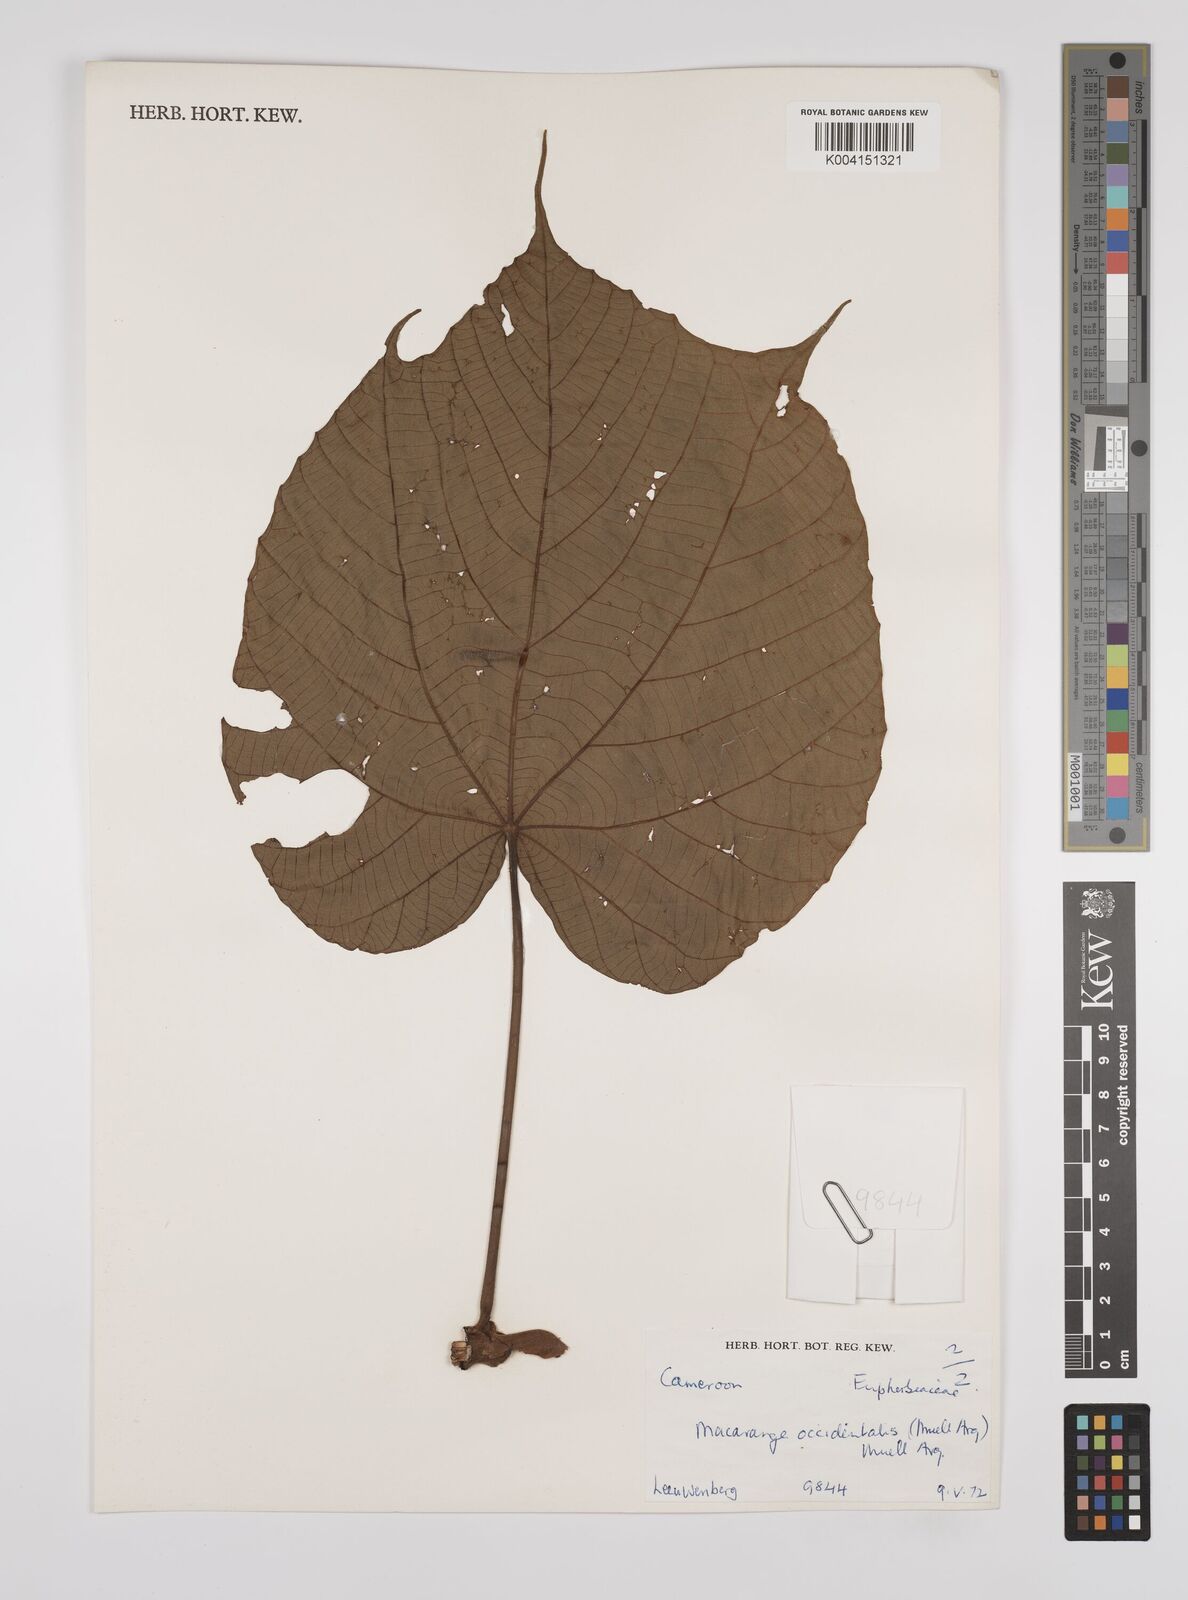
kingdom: Plantae
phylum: Tracheophyta
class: Magnoliopsida
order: Malpighiales
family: Euphorbiaceae
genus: Macaranga
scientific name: Macaranga occidentalis
